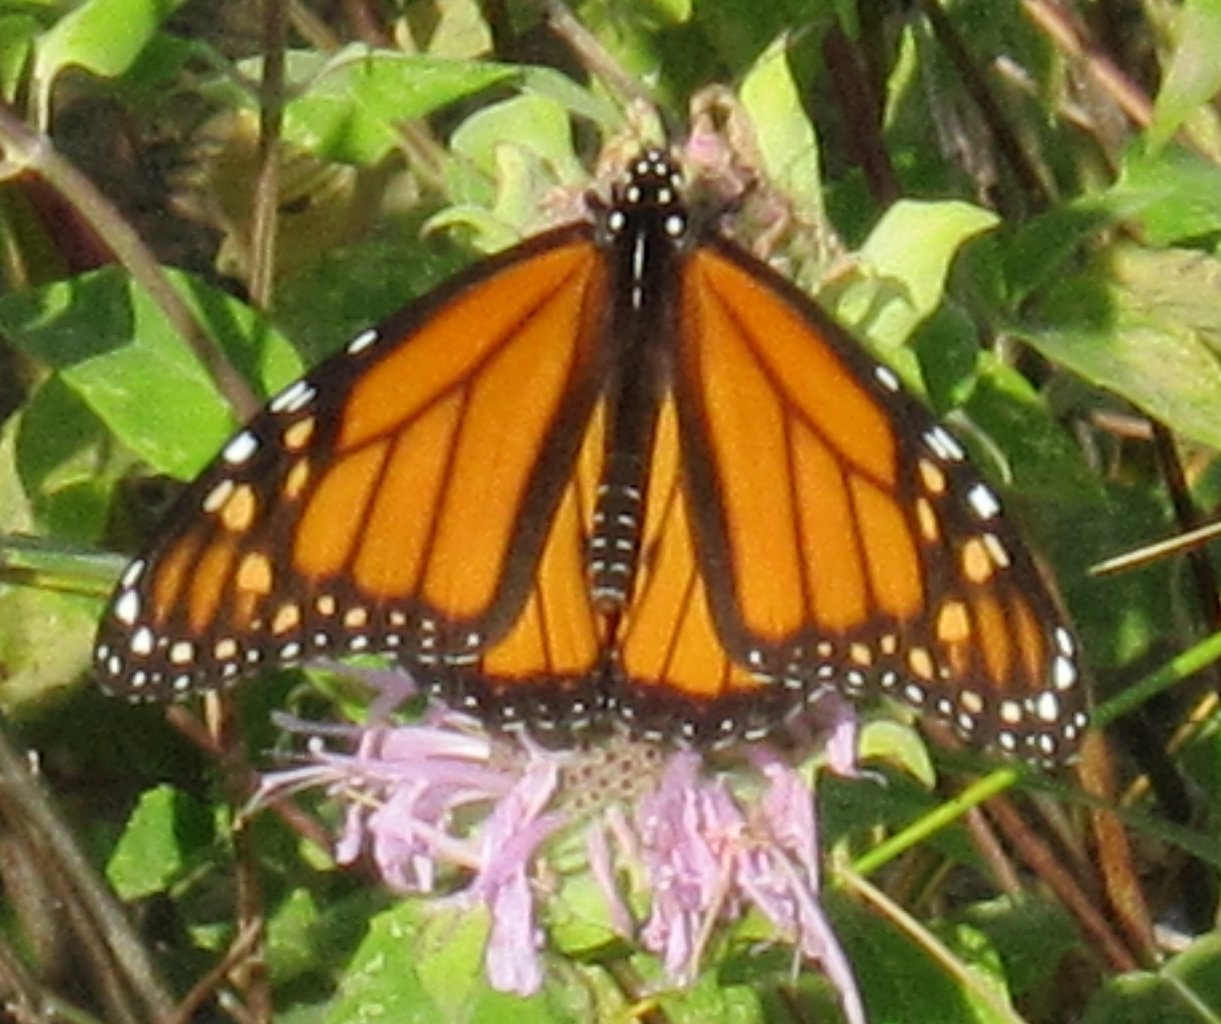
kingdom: Animalia
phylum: Arthropoda
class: Insecta
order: Lepidoptera
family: Nymphalidae
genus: Danaus
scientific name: Danaus plexippus
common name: Monarch
